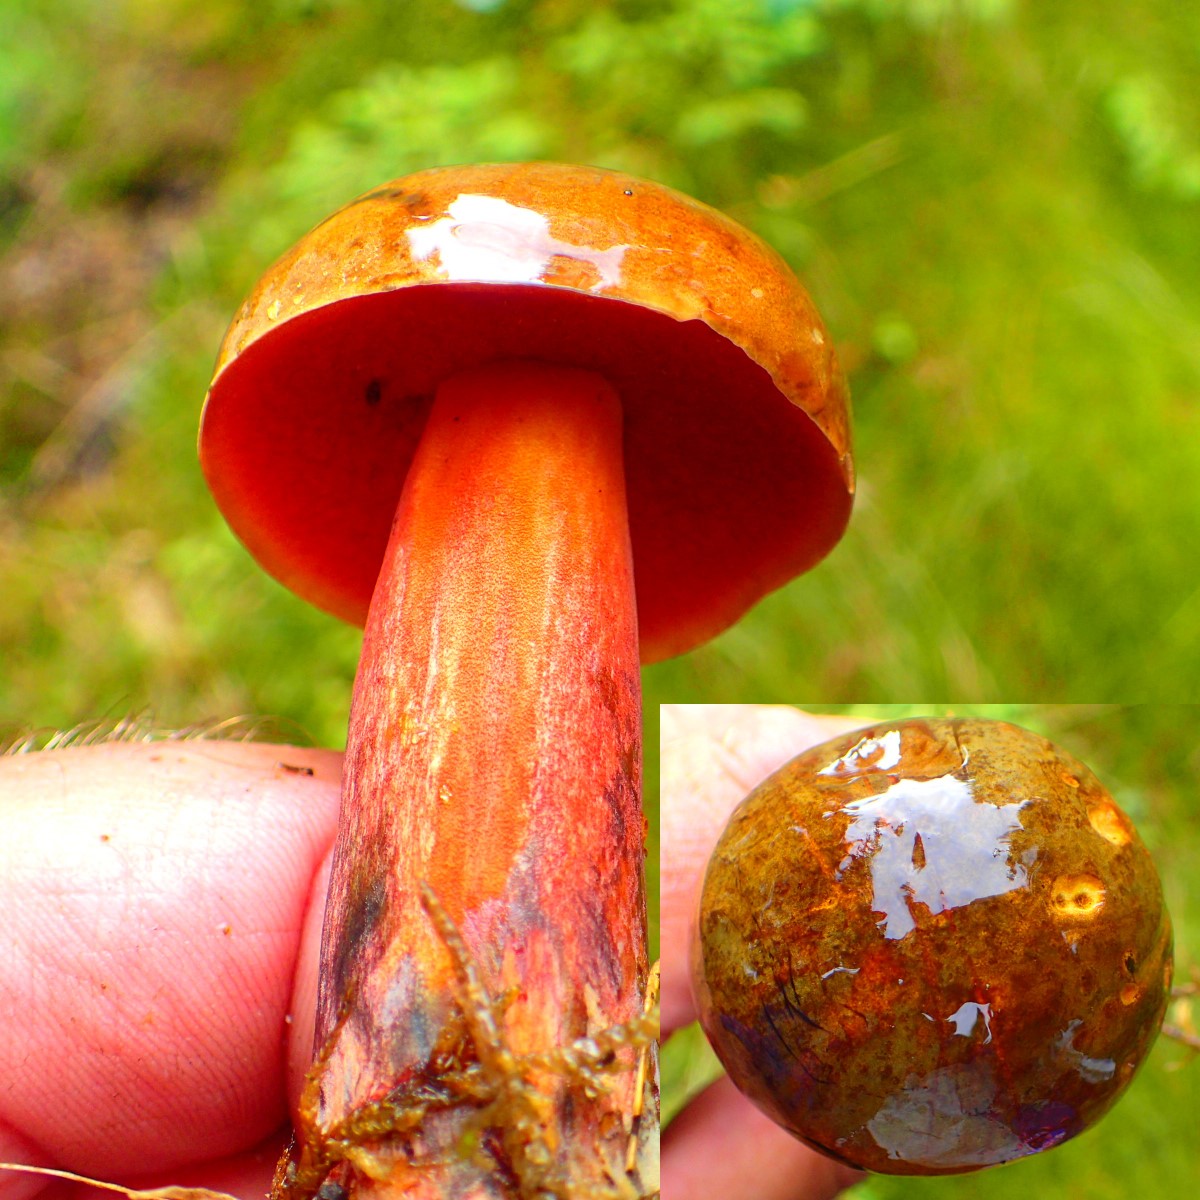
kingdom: Fungi
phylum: Basidiomycota
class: Agaricomycetes
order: Boletales
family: Boletaceae
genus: Neoboletus
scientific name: Neoboletus erythropus
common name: punktstokket indigorørhat
